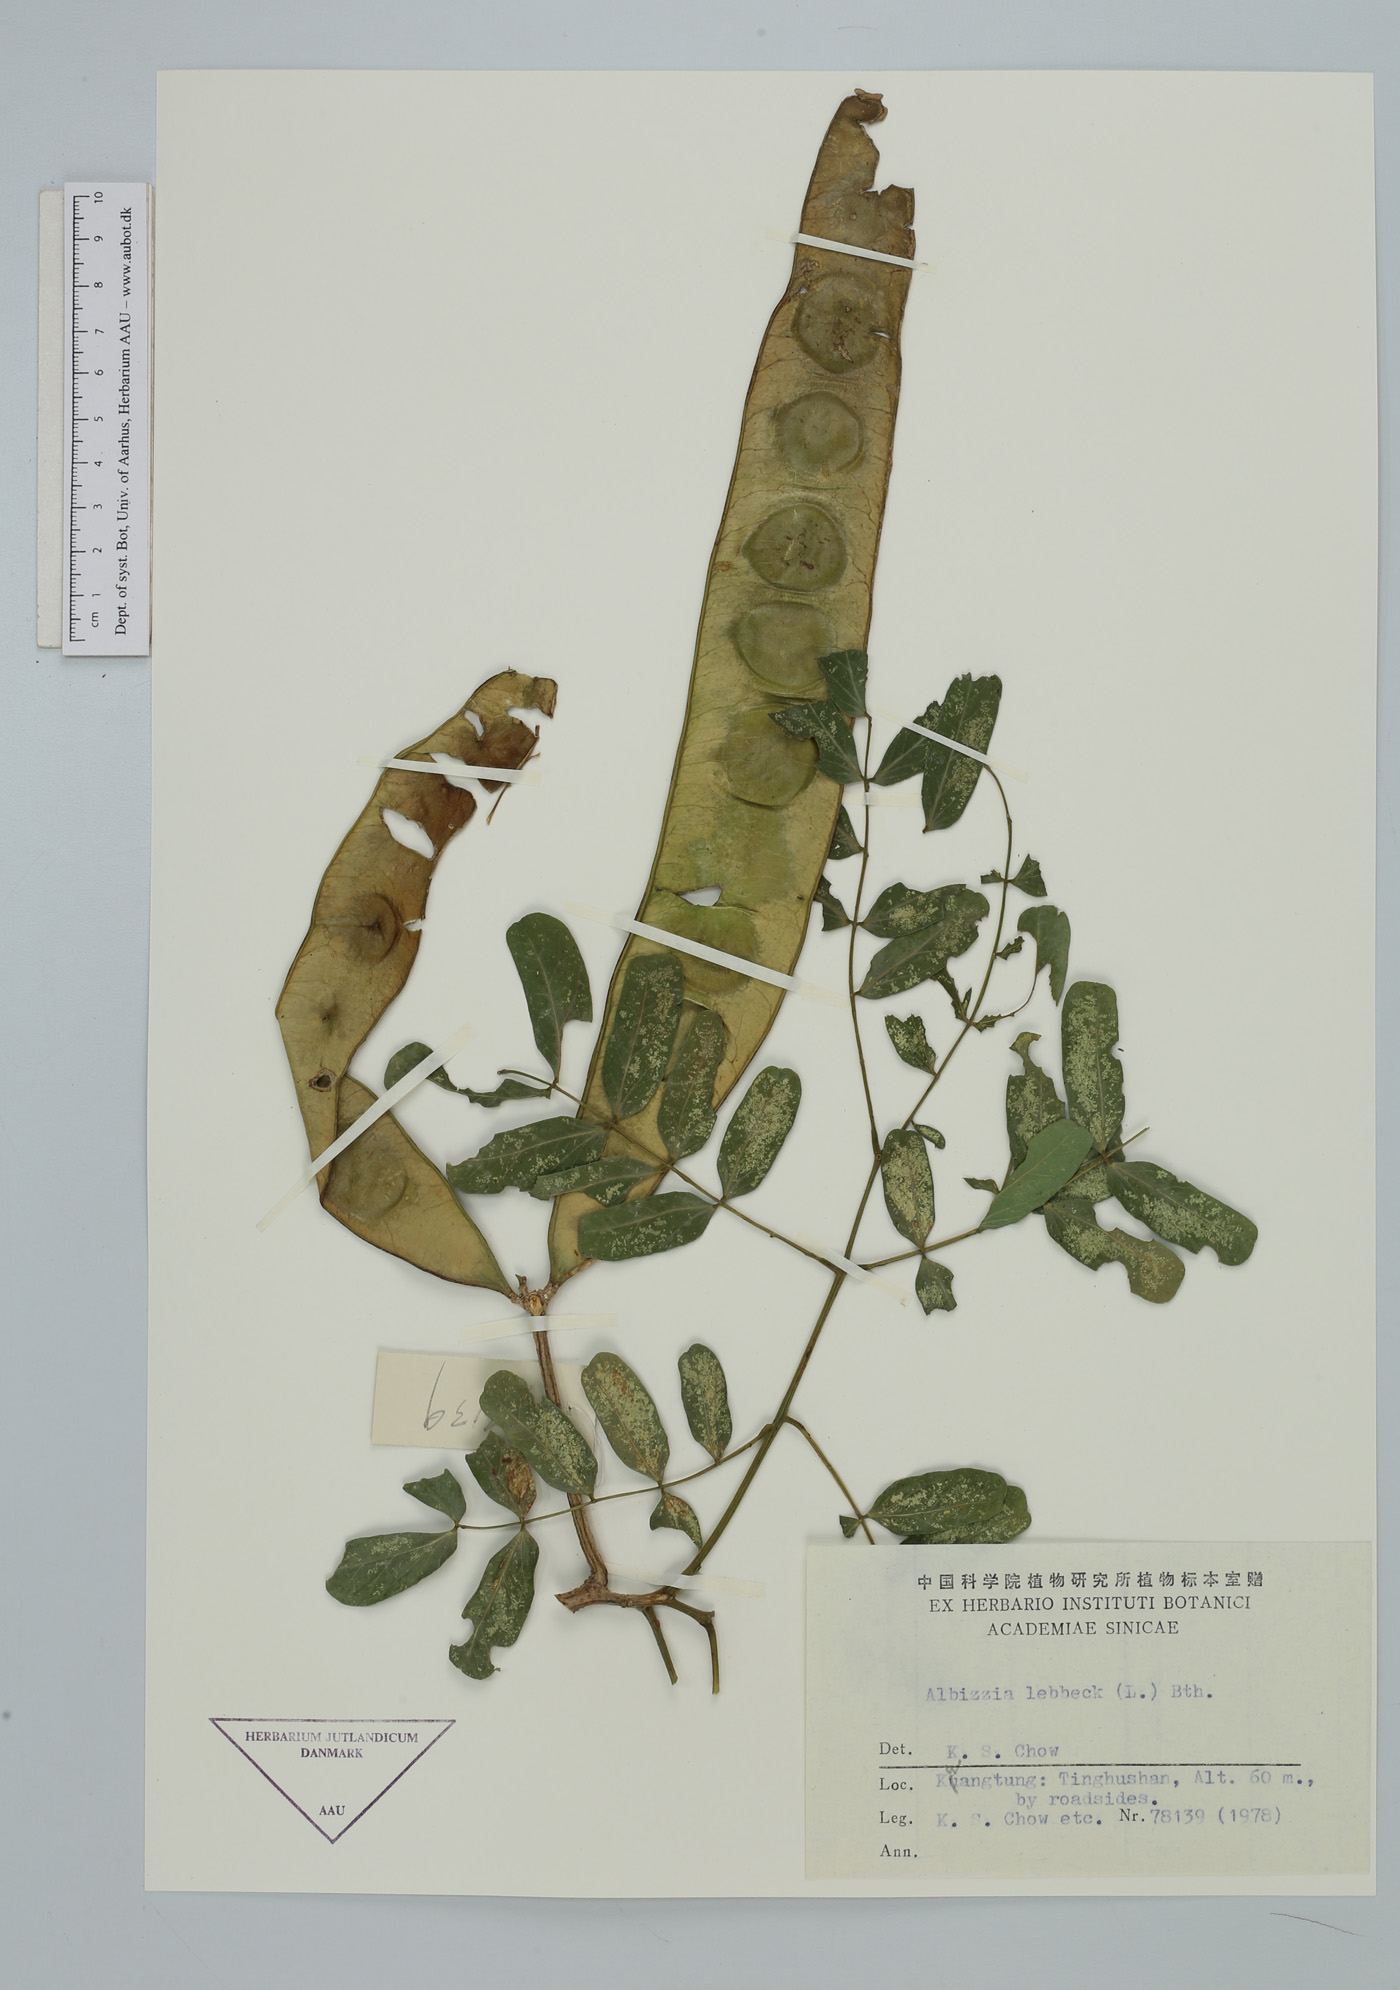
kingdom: Plantae
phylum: Tracheophyta
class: Magnoliopsida
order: Fabales
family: Fabaceae
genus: Albizia
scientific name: Albizia lebbeck
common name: Woman's tongue
